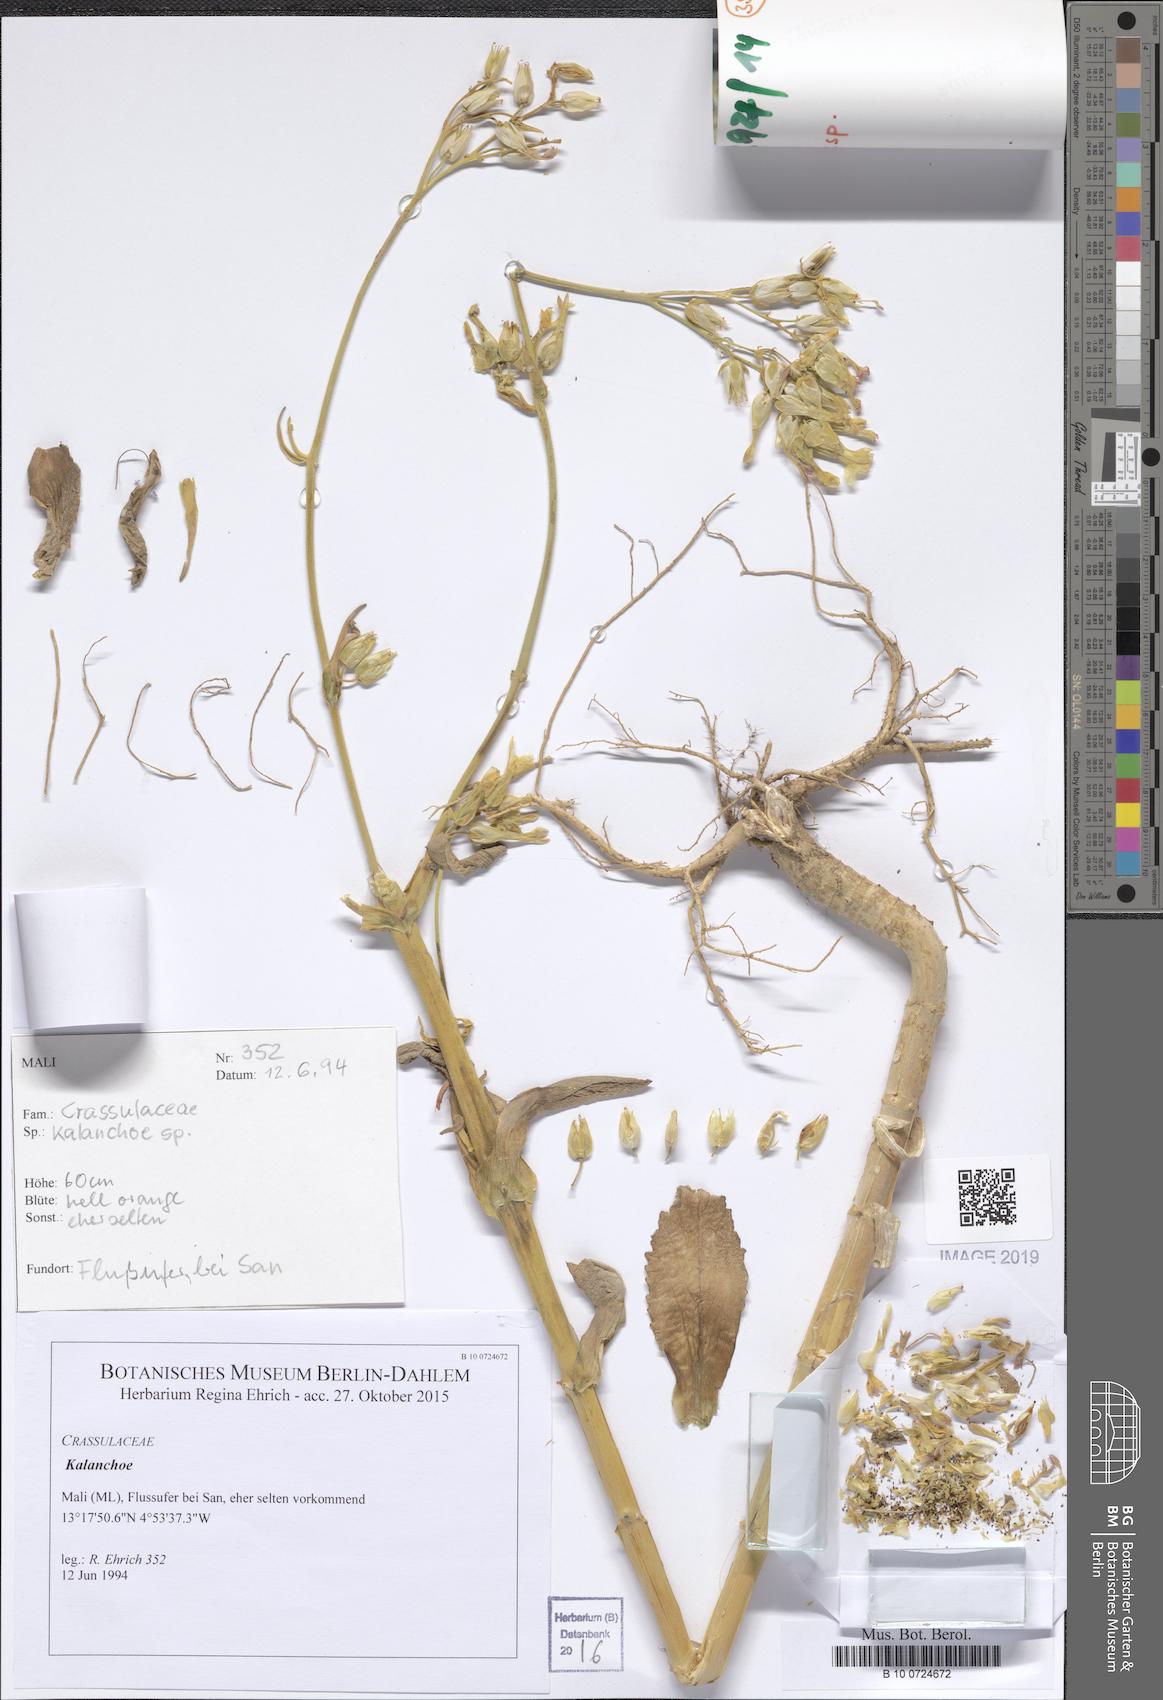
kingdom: Plantae
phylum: Tracheophyta
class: Magnoliopsida
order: Saxifragales
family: Crassulaceae
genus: Kalanchoe
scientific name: Kalanchoe lanceolata
